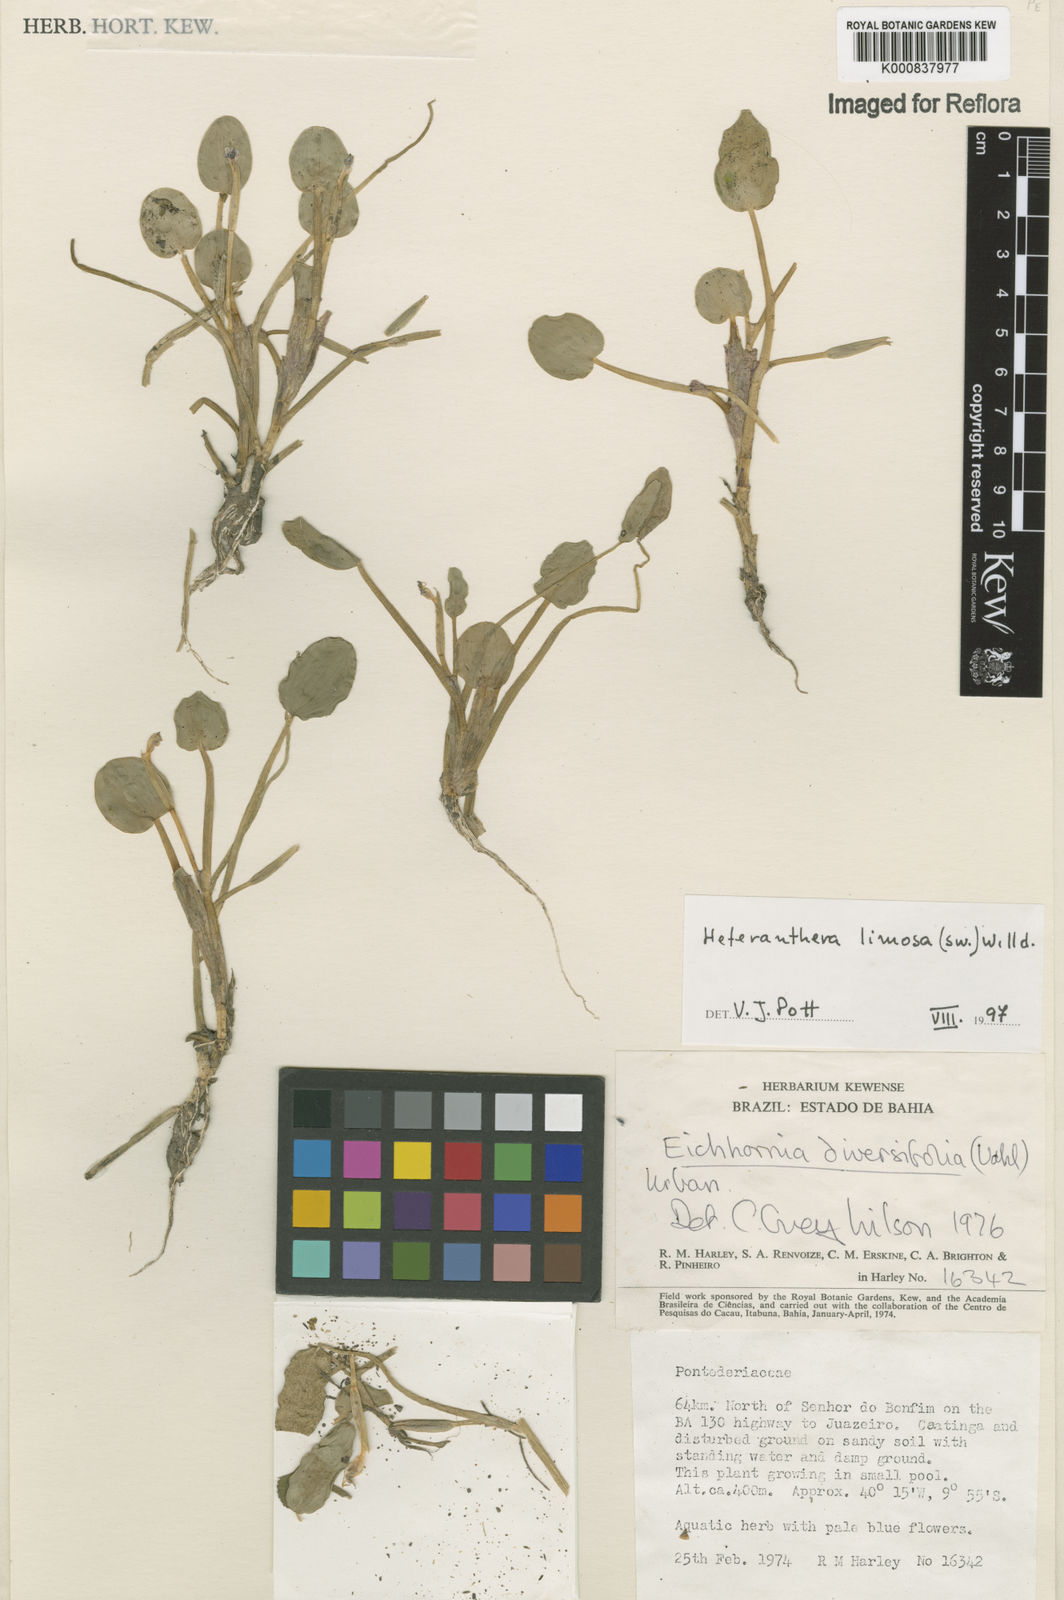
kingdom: Plantae
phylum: Tracheophyta
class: Liliopsida
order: Commelinales
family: Pontederiaceae
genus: Heteranthera
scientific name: Heteranthera limosa
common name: Blue mud-plantain
